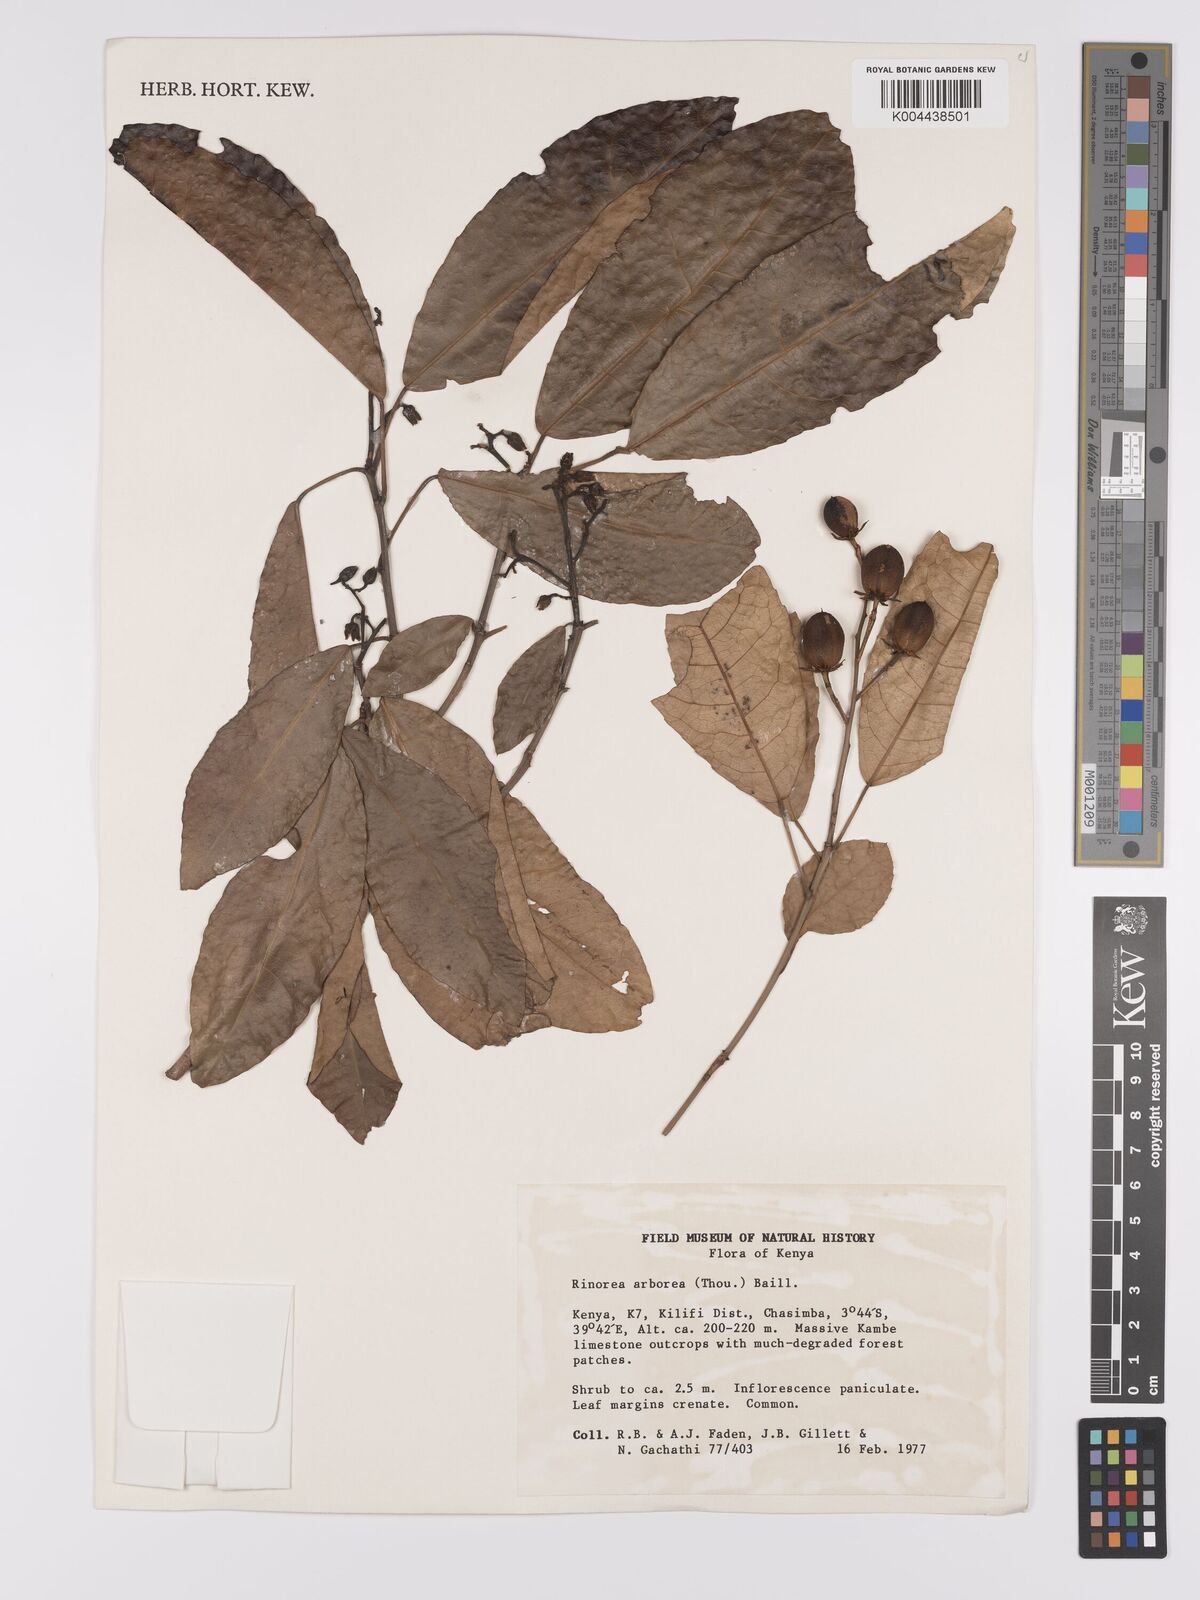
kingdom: Plantae
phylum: Tracheophyta
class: Magnoliopsida
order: Malpighiales
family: Violaceae
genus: Rinorea
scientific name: Rinorea arborea
